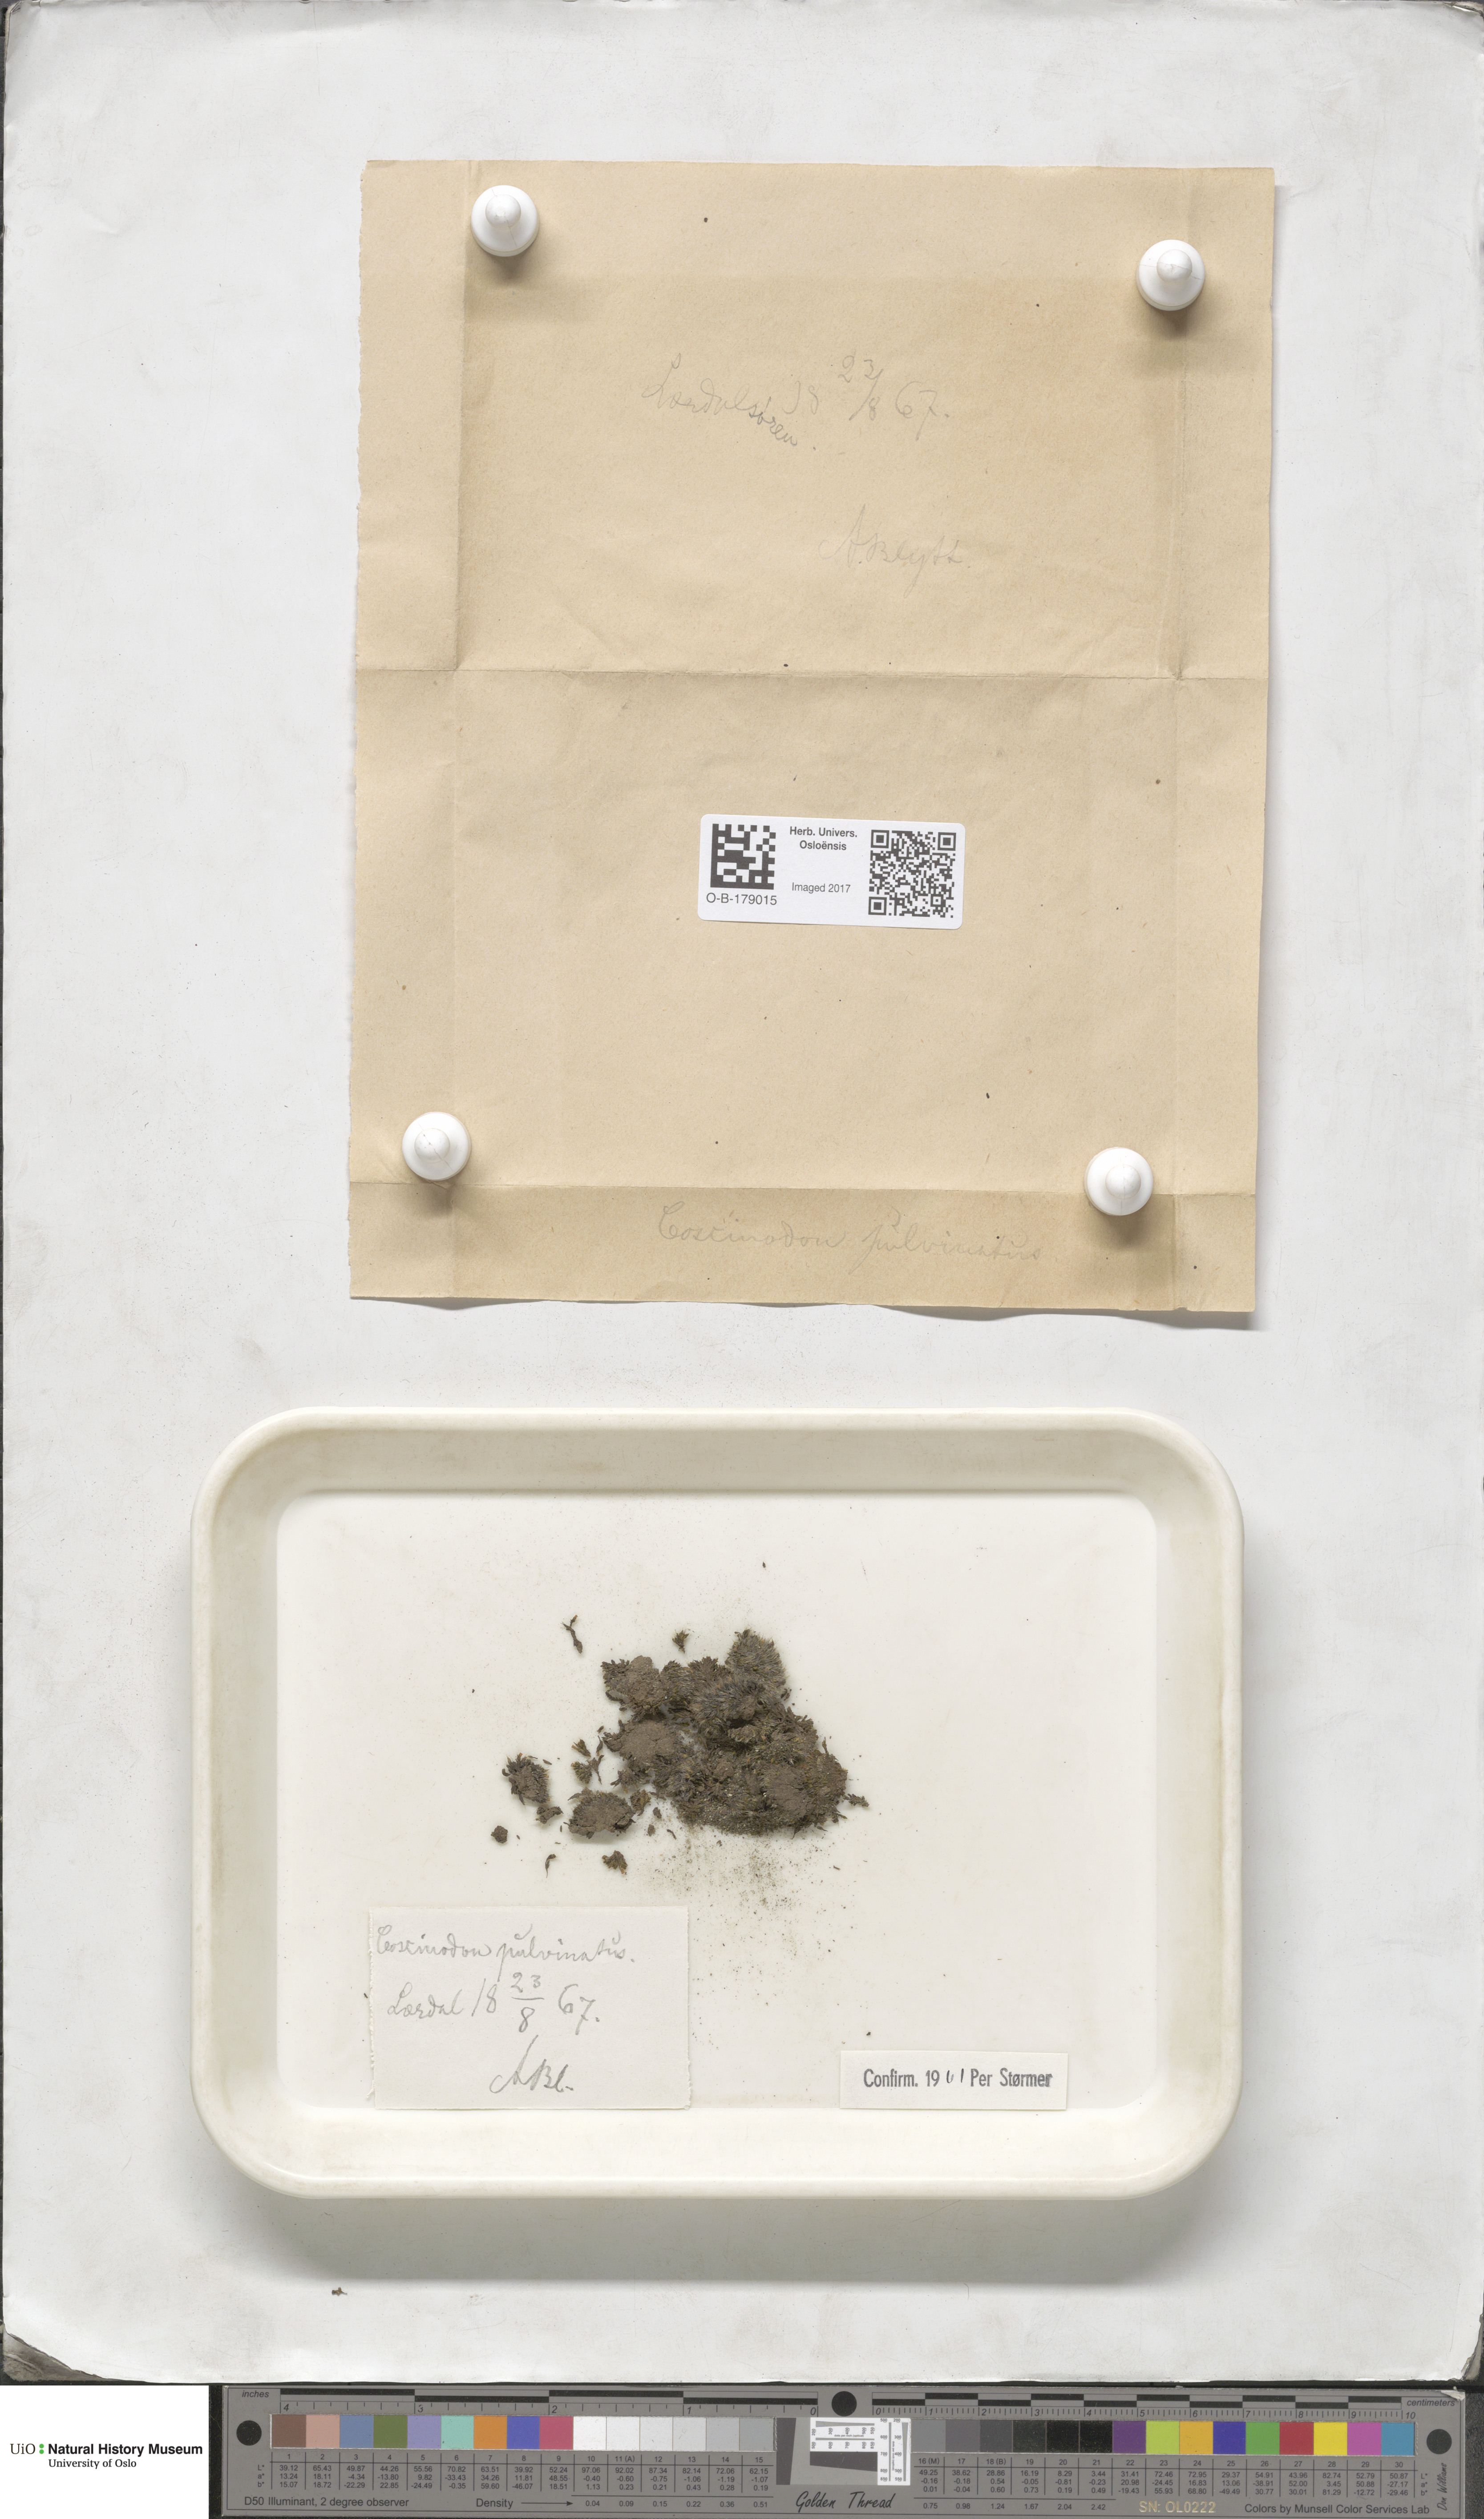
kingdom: Plantae
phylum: Bryophyta
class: Bryopsida
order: Bartramiales
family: Bartramiaceae
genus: Conostomum
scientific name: Conostomum tetragonum
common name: Helmet moss
